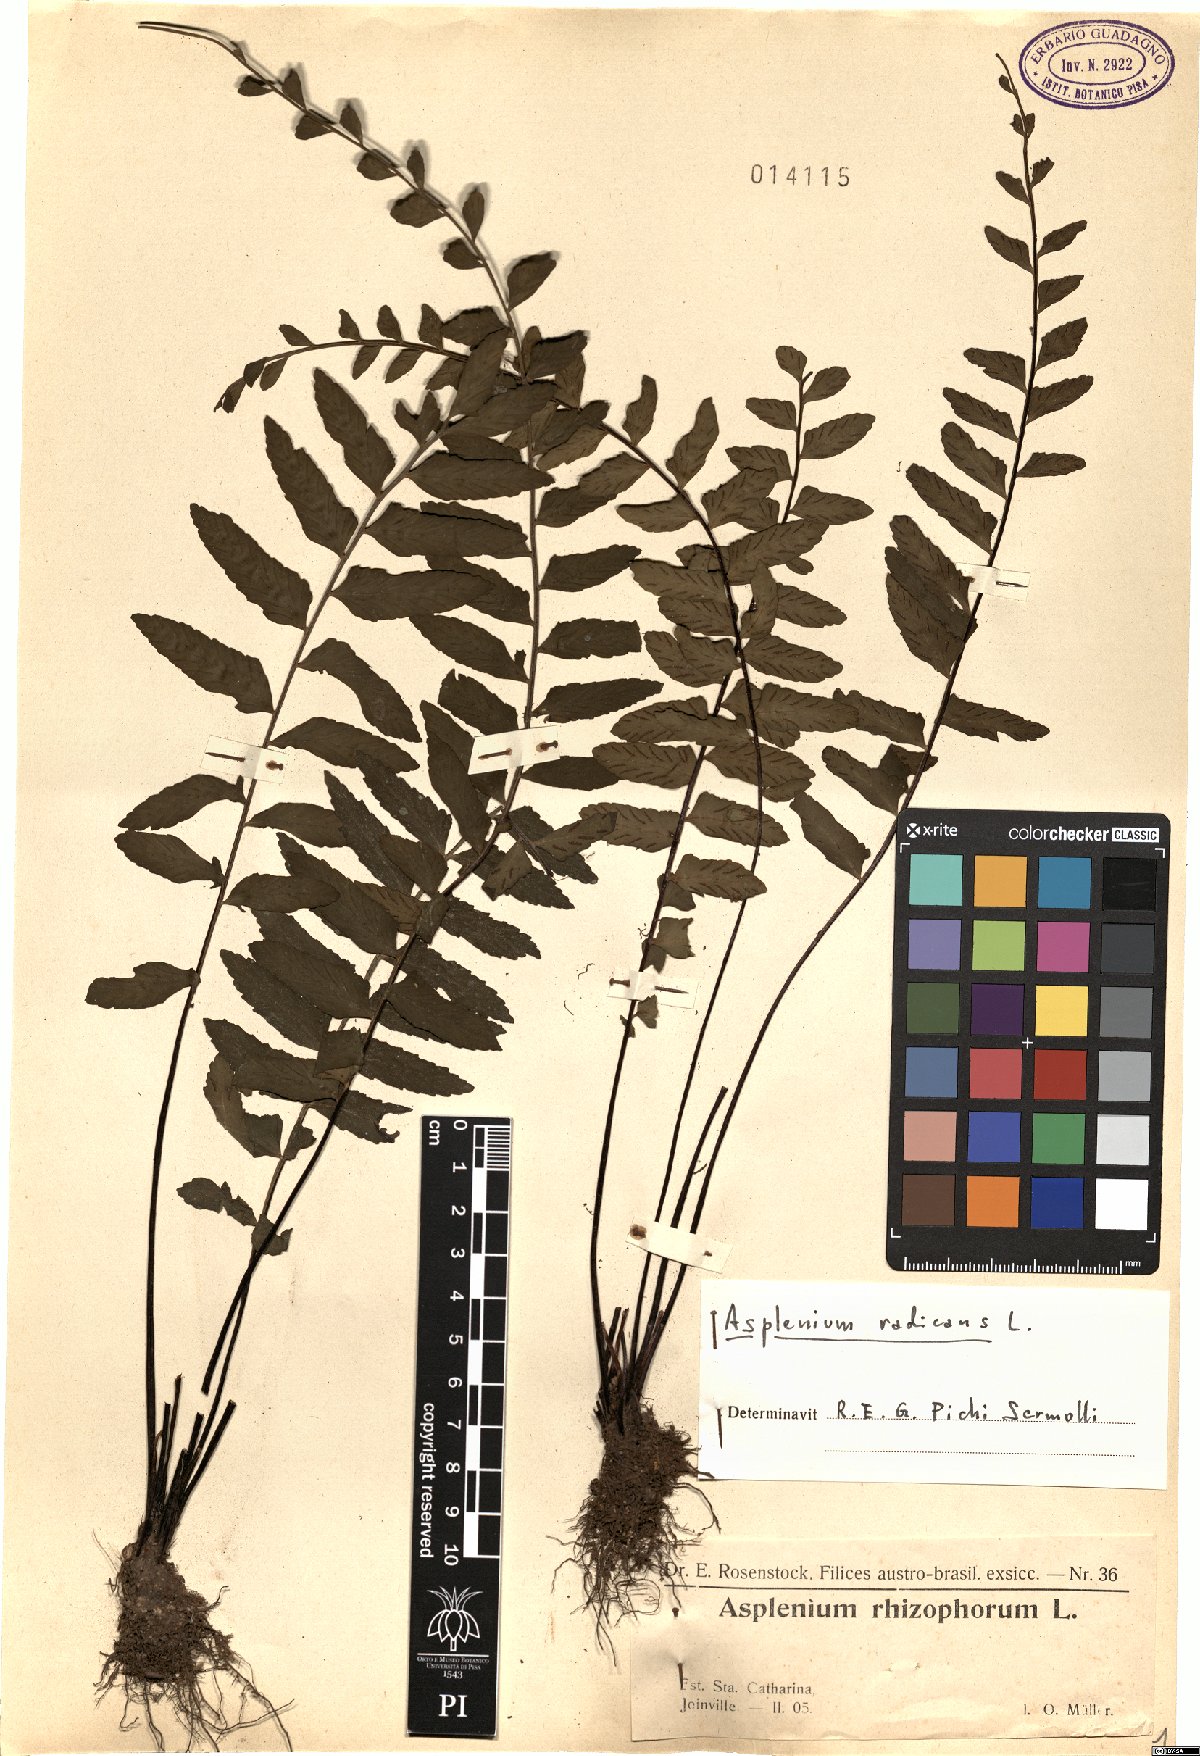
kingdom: Plantae
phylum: Tracheophyta
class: Polypodiopsida
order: Polypodiales
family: Aspleniaceae
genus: Asplenium
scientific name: Asplenium radicans
